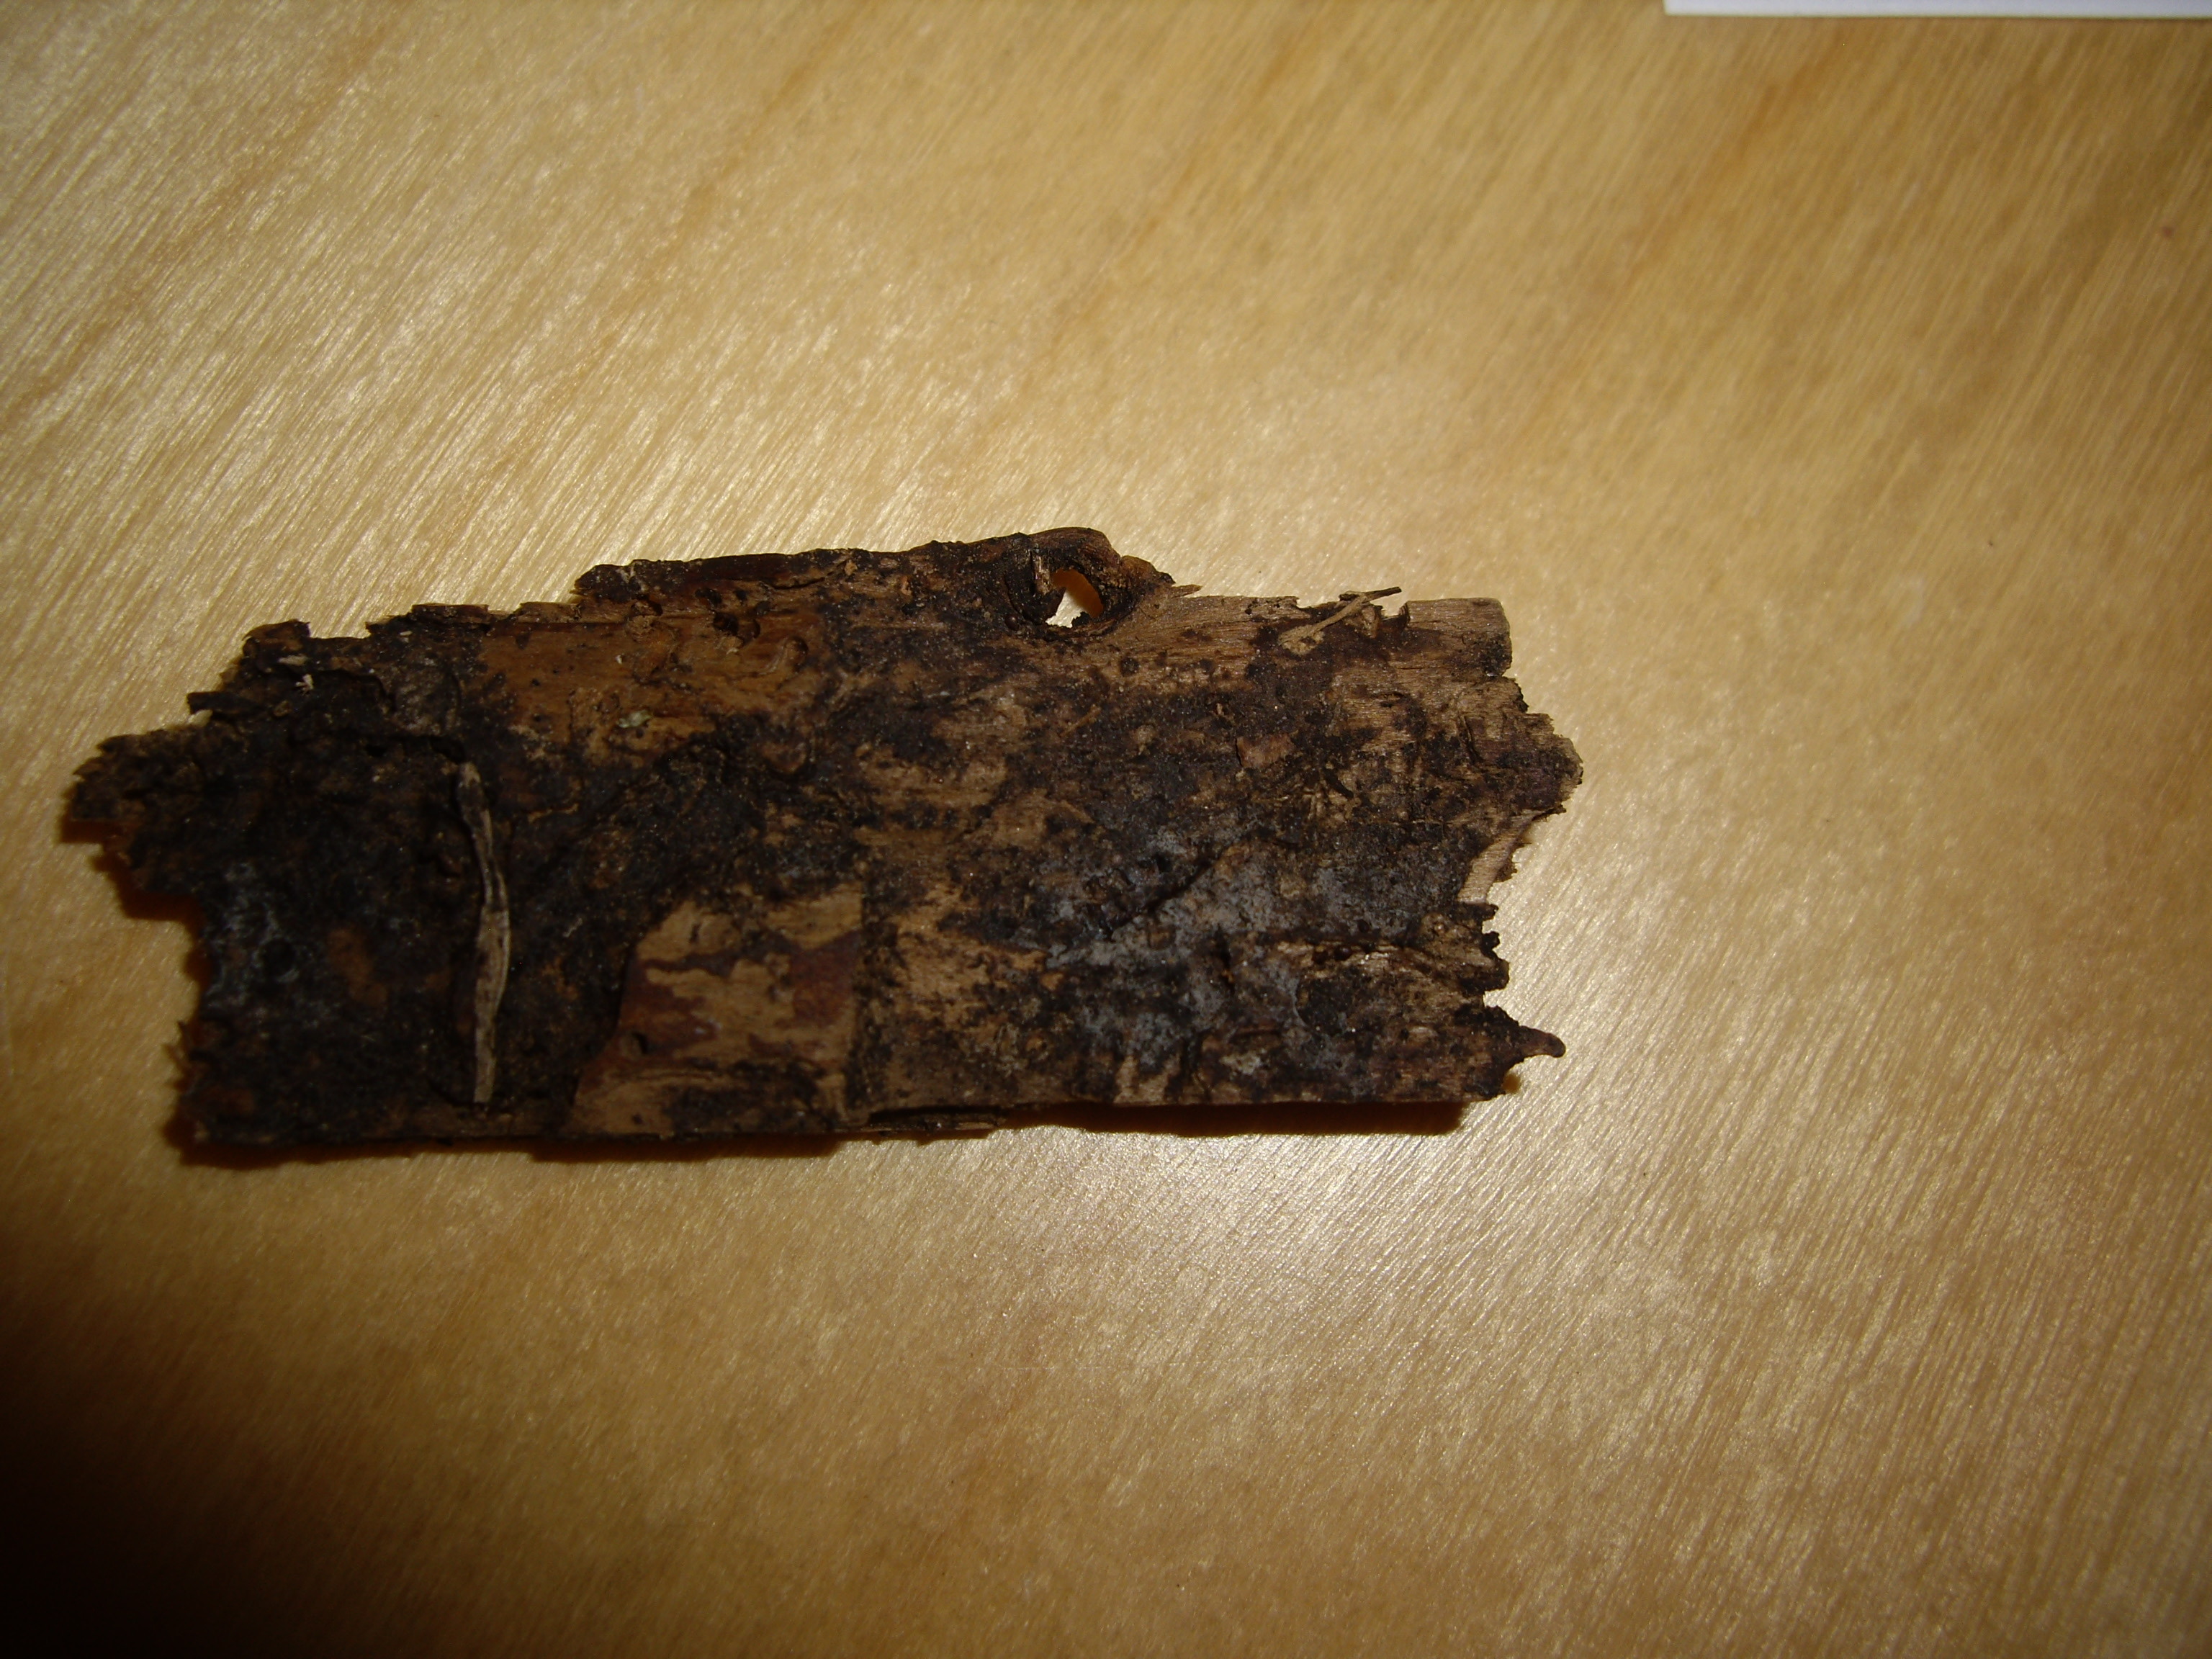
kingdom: Fungi
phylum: Basidiomycota
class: Agaricomycetes
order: Corticiales
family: Corticiaceae
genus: Galzinia
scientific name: Galzinia pedicellata
